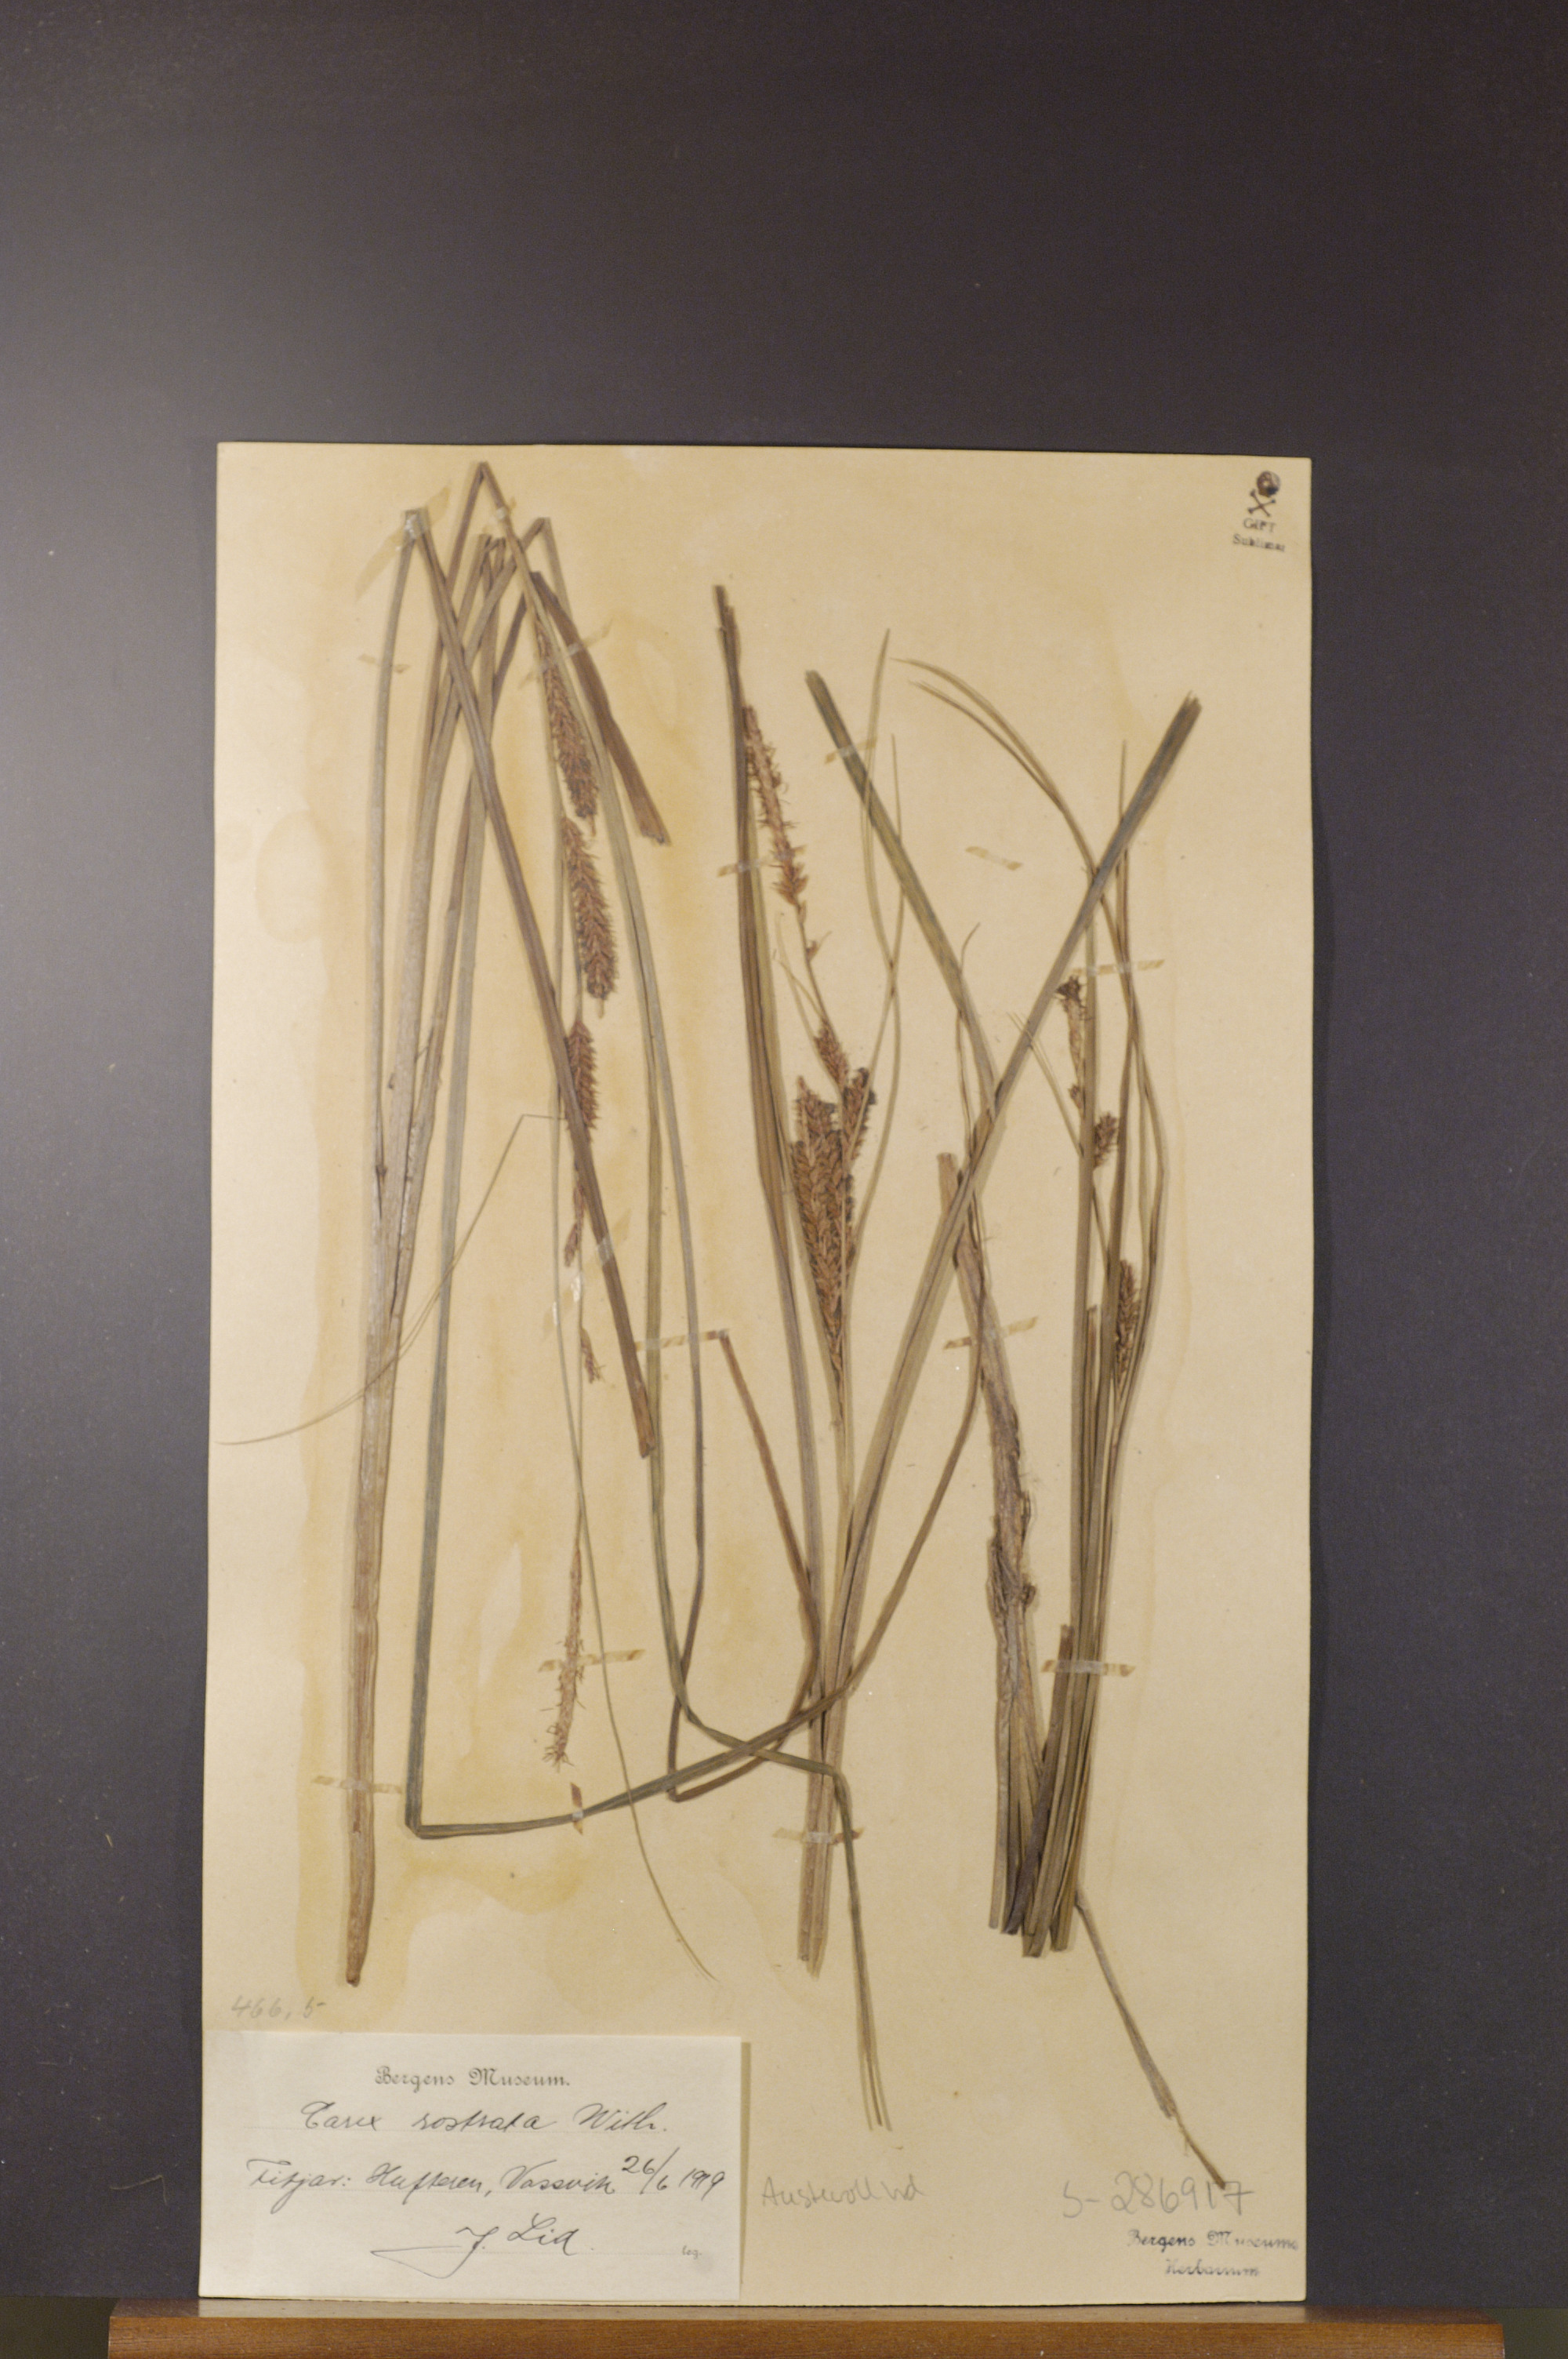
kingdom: Plantae
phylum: Tracheophyta
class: Liliopsida
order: Poales
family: Cyperaceae
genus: Carex
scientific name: Carex rostrata
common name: Bottle sedge
